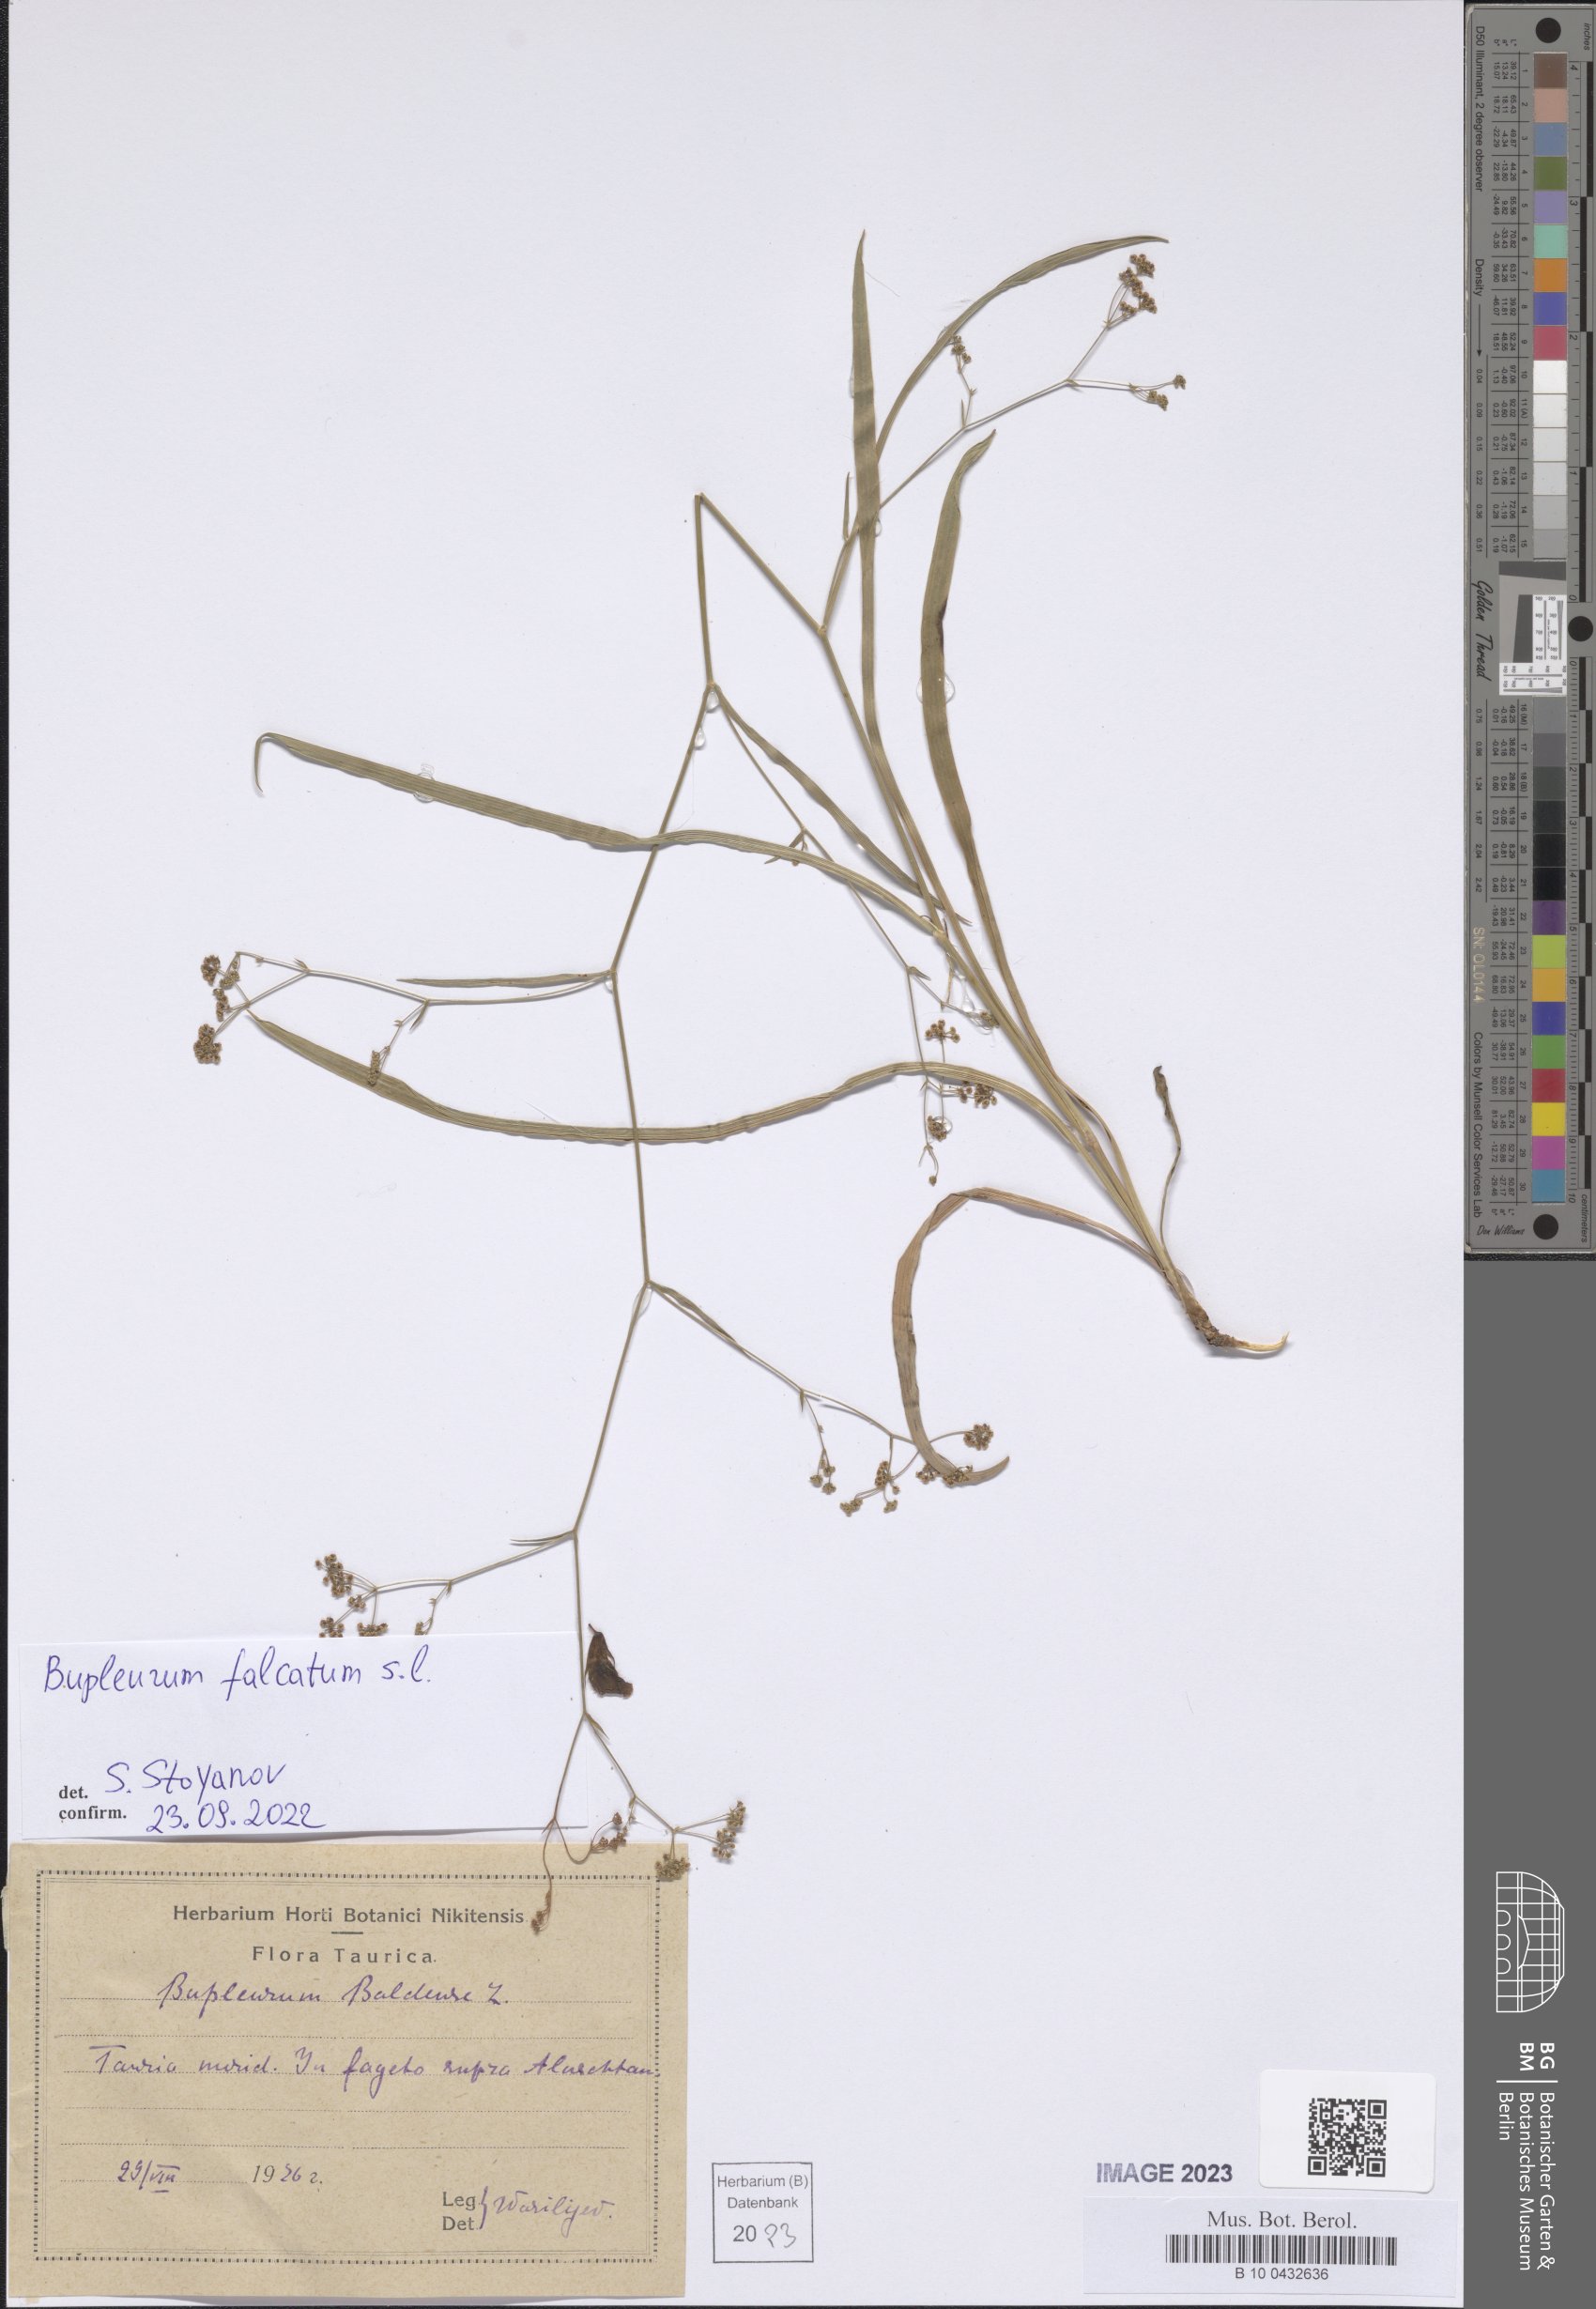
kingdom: Plantae
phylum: Tracheophyta
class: Magnoliopsida
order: Apiales
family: Apiaceae
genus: Bupleurum
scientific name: Bupleurum falcatum
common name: Sickle-leaved hare's-ear
